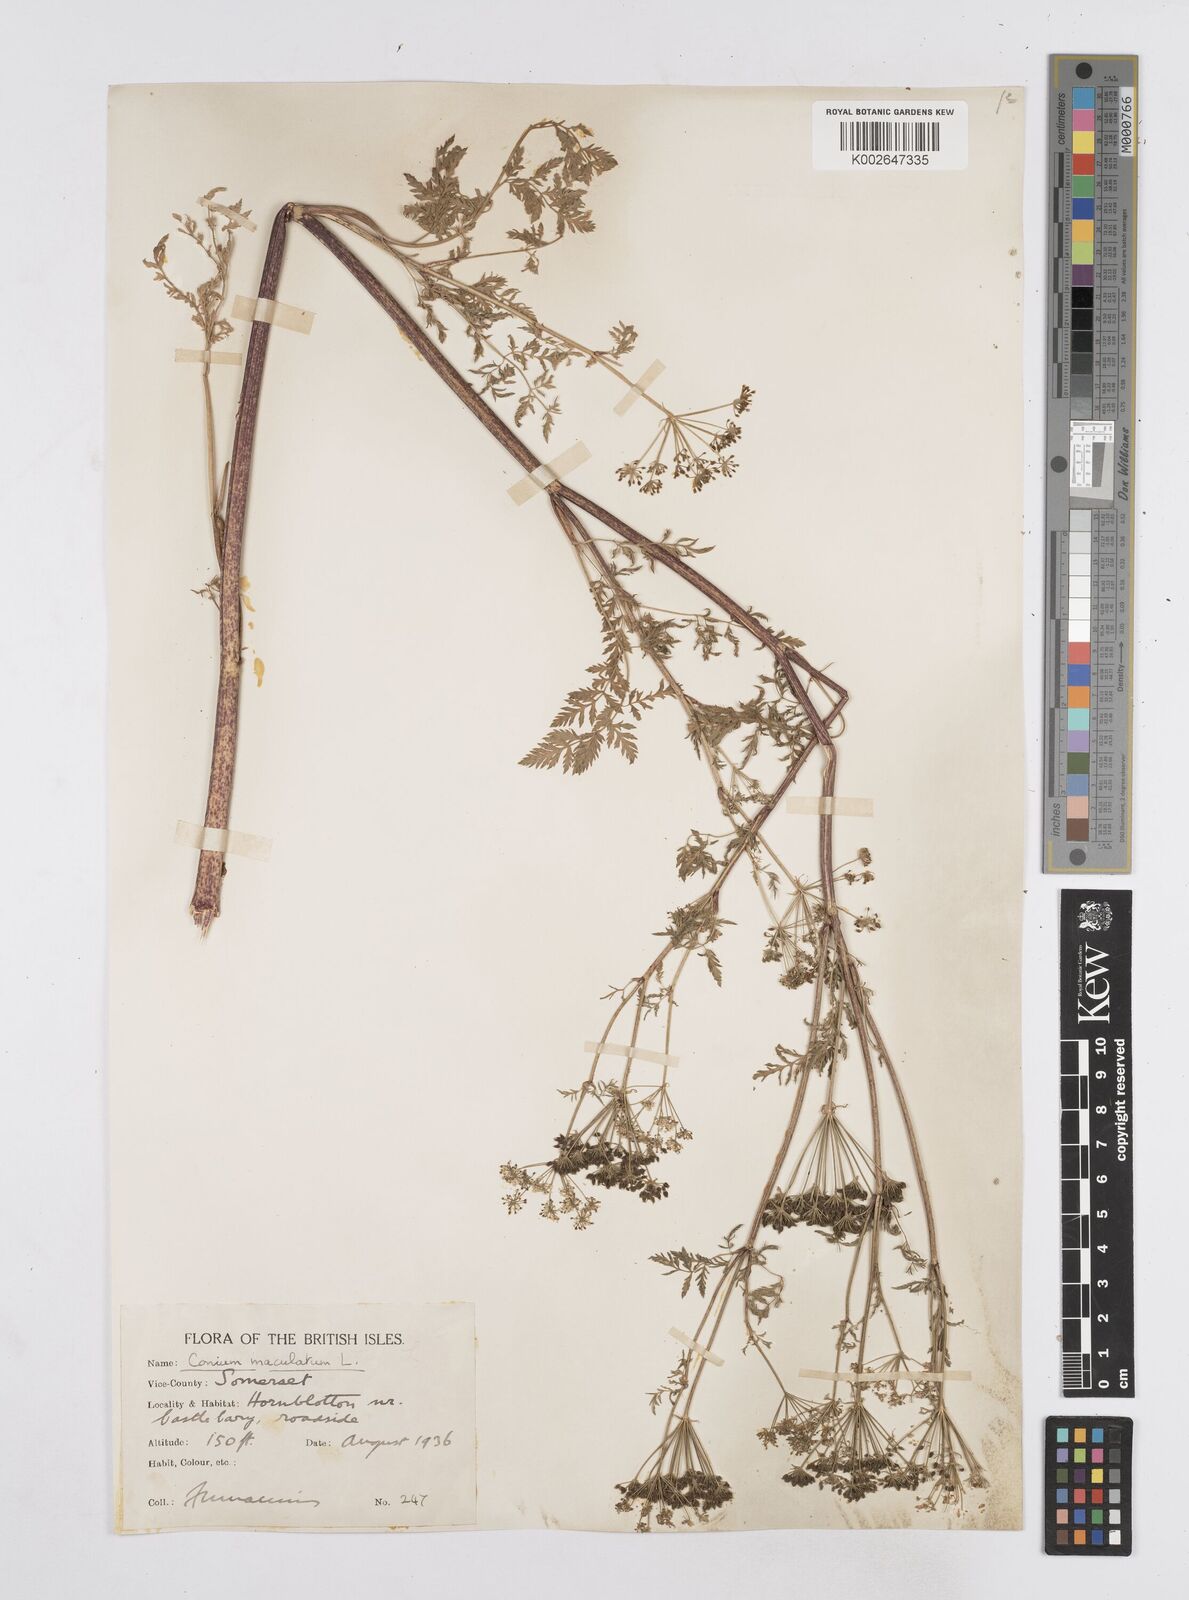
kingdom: Plantae
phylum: Tracheophyta
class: Magnoliopsida
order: Apiales
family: Apiaceae
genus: Conium
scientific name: Conium maculatum
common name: Hemlock
